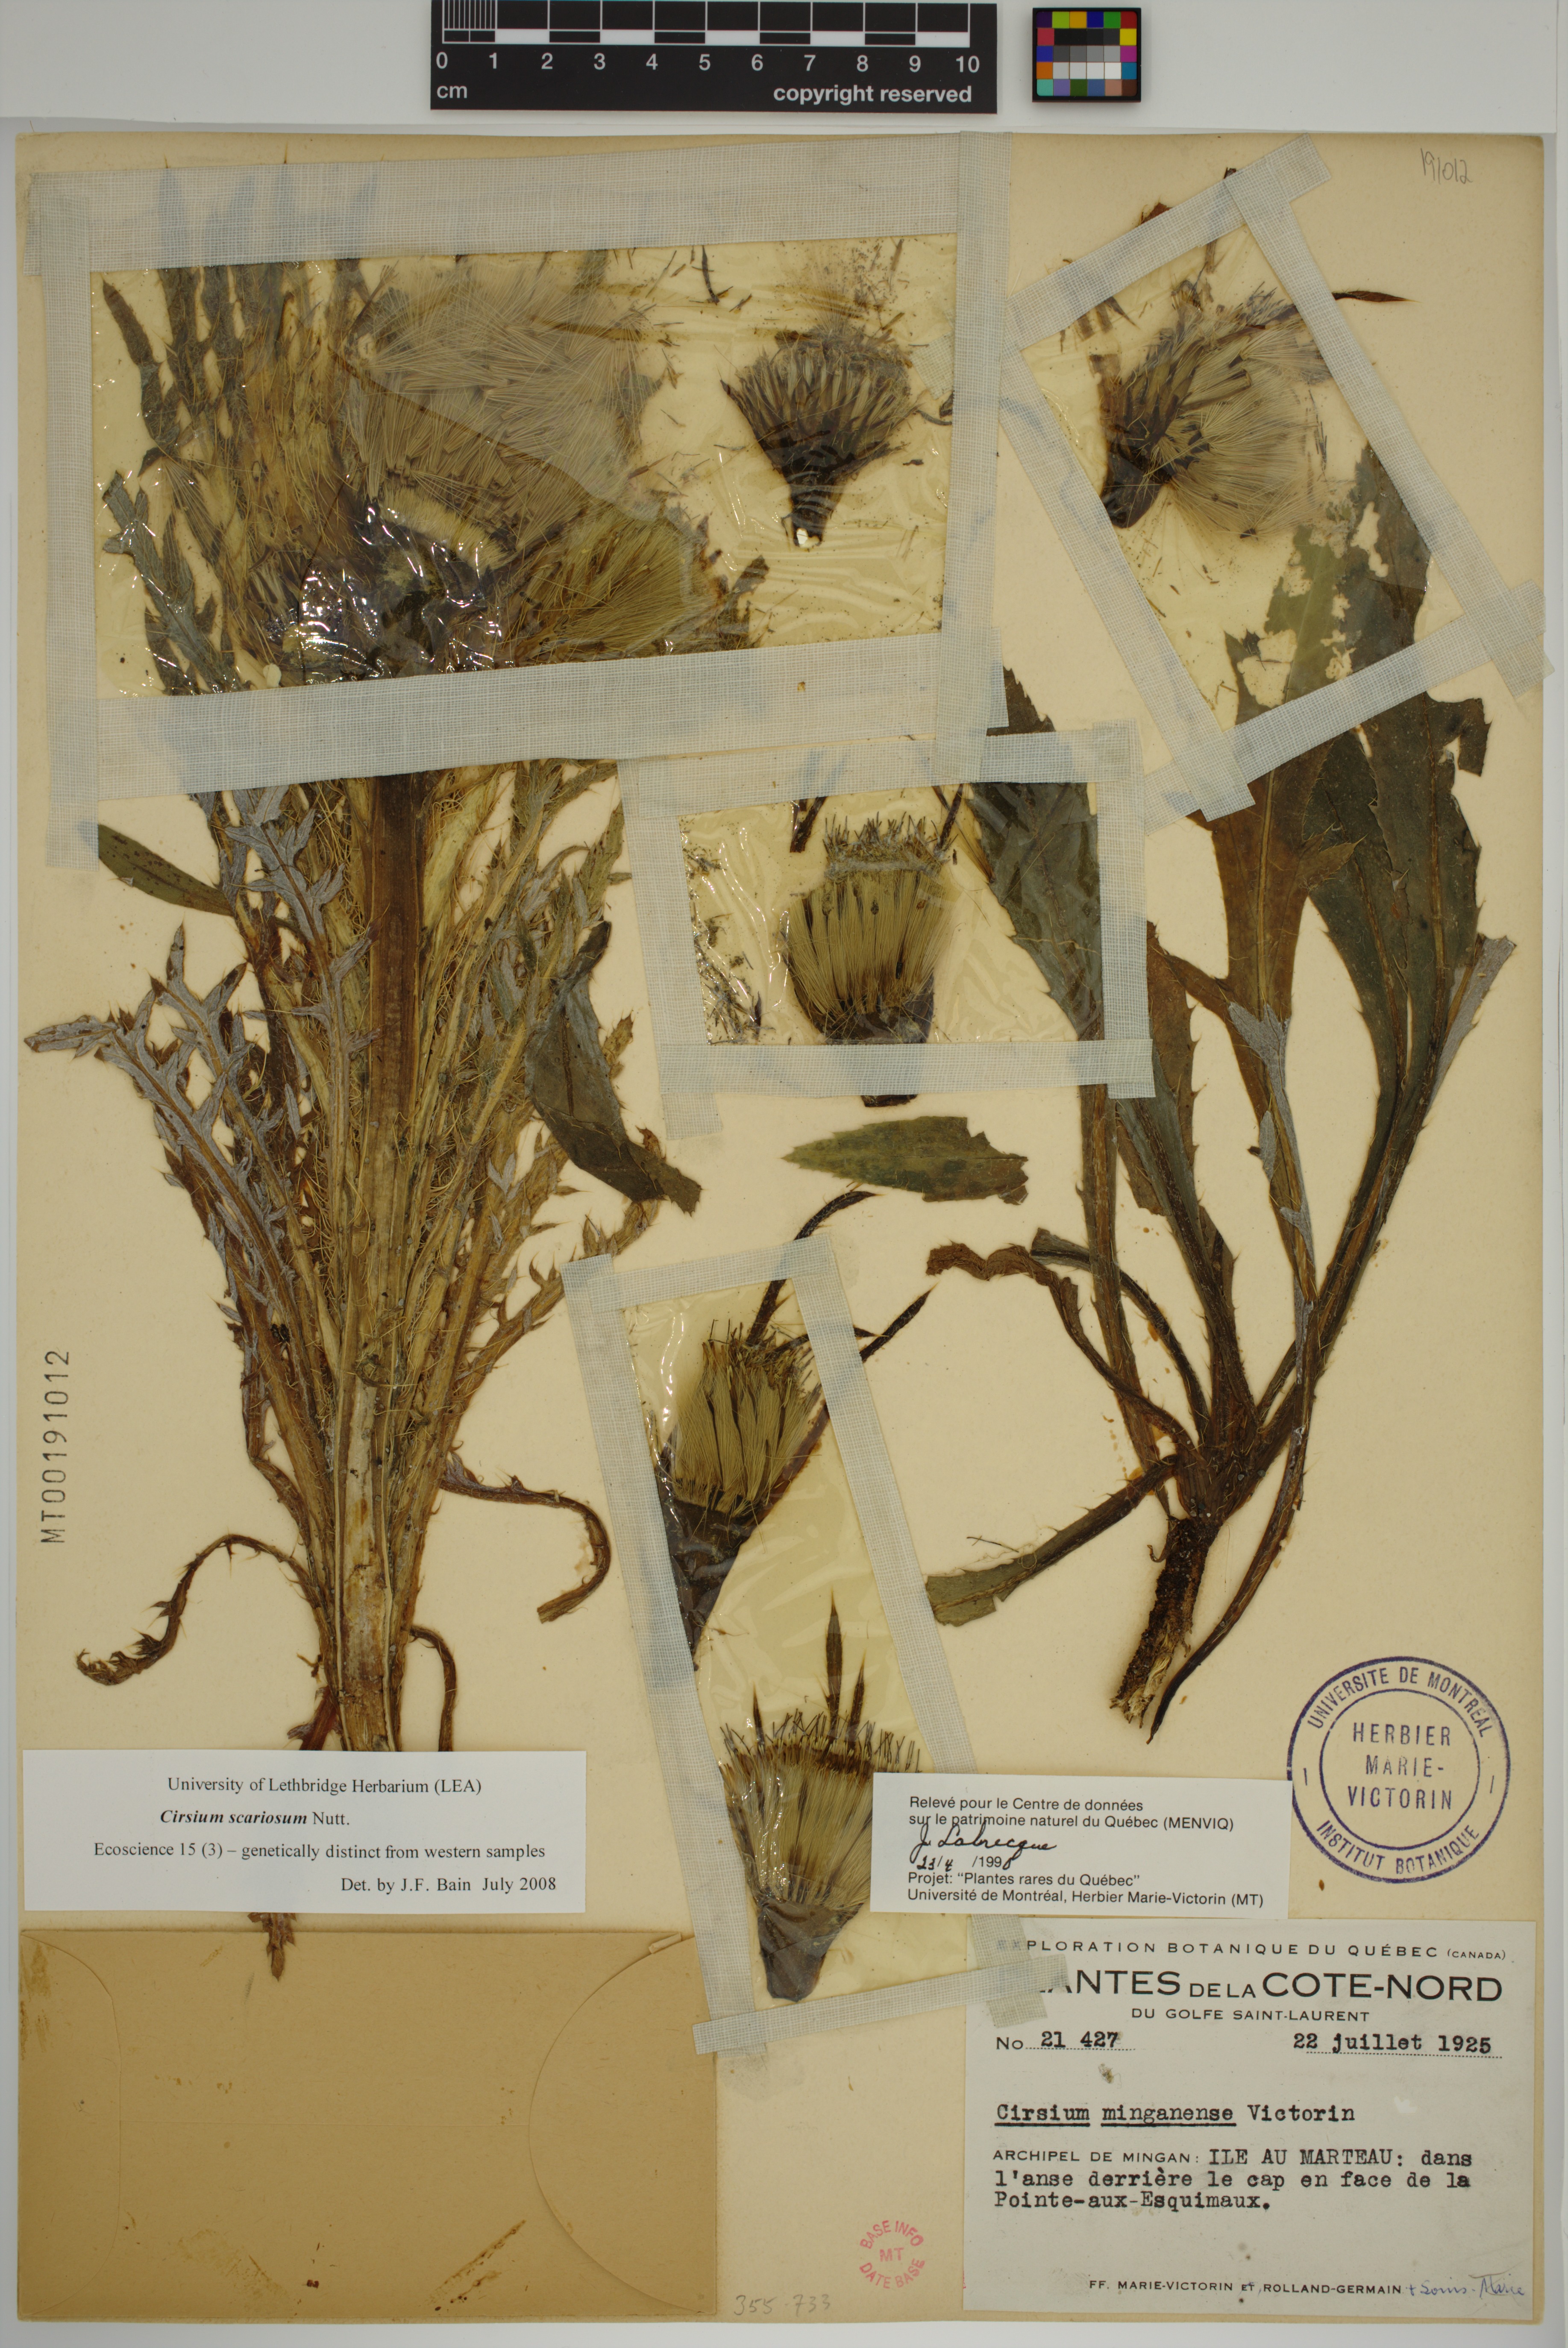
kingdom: Plantae
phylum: Tracheophyta
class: Magnoliopsida
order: Asterales
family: Asteraceae
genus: Cirsium
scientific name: Cirsium scariosum
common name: Meadow thistle
